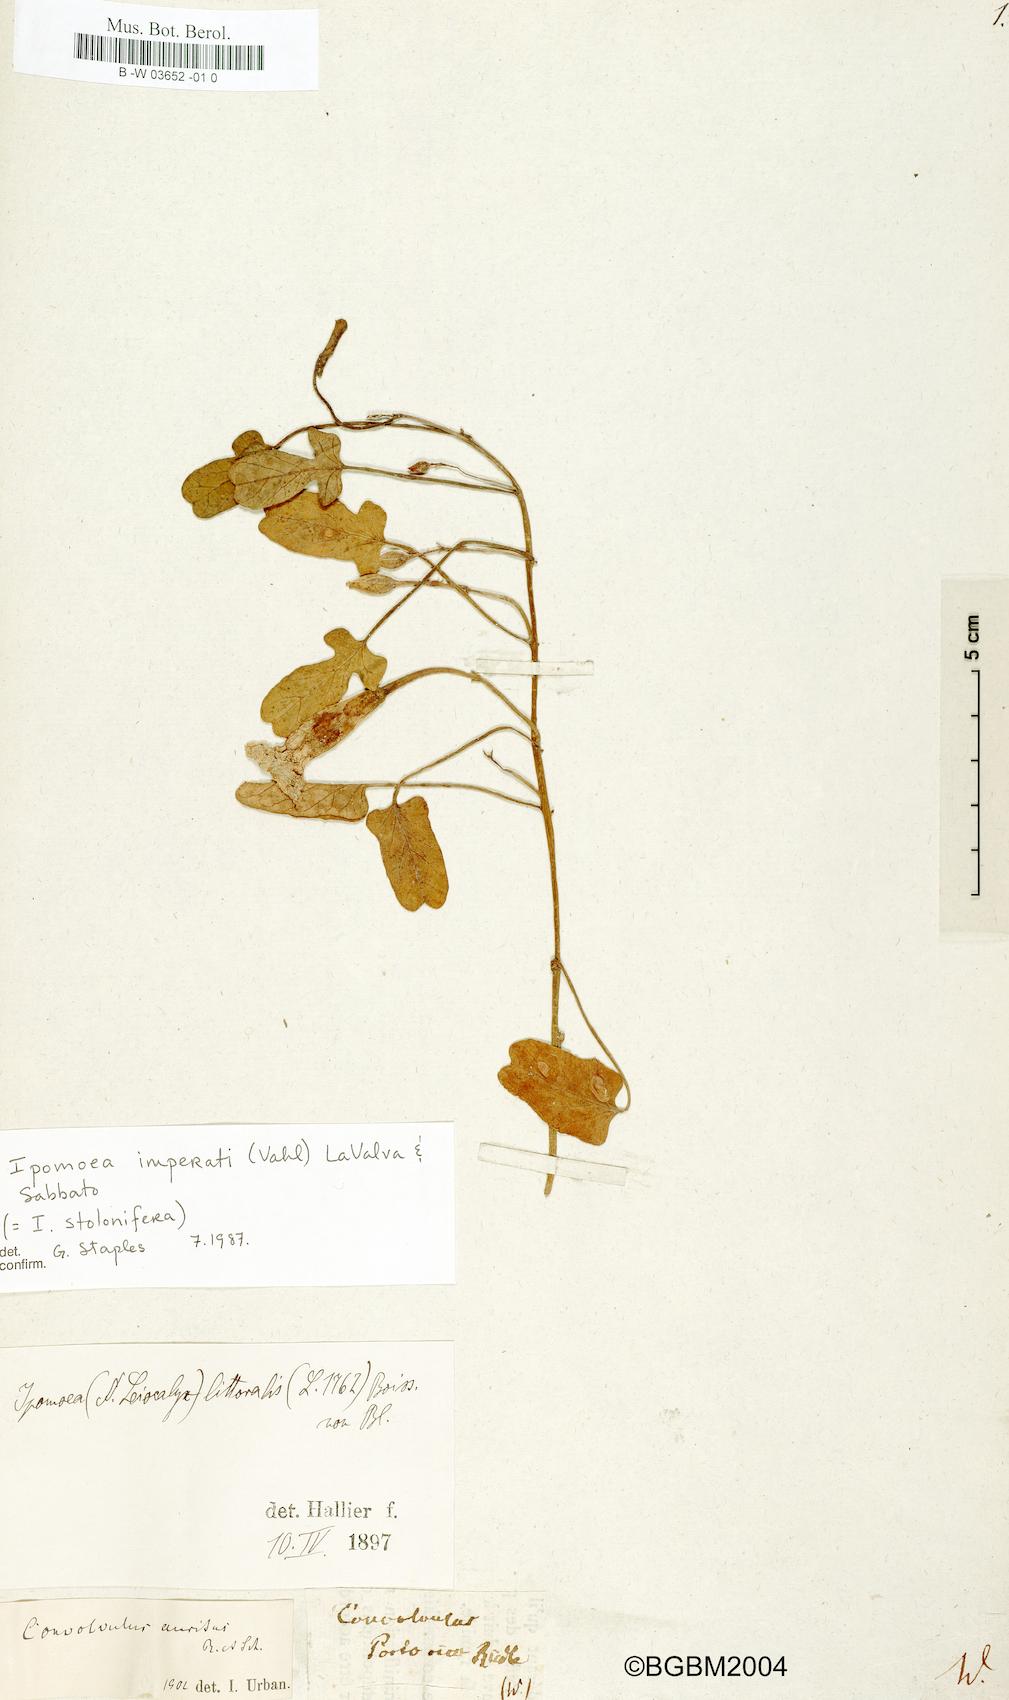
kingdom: Plantae
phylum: Tracheophyta
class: Magnoliopsida
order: Solanales
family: Convolvulaceae
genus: Convolvulus
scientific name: Convolvulus auritus
